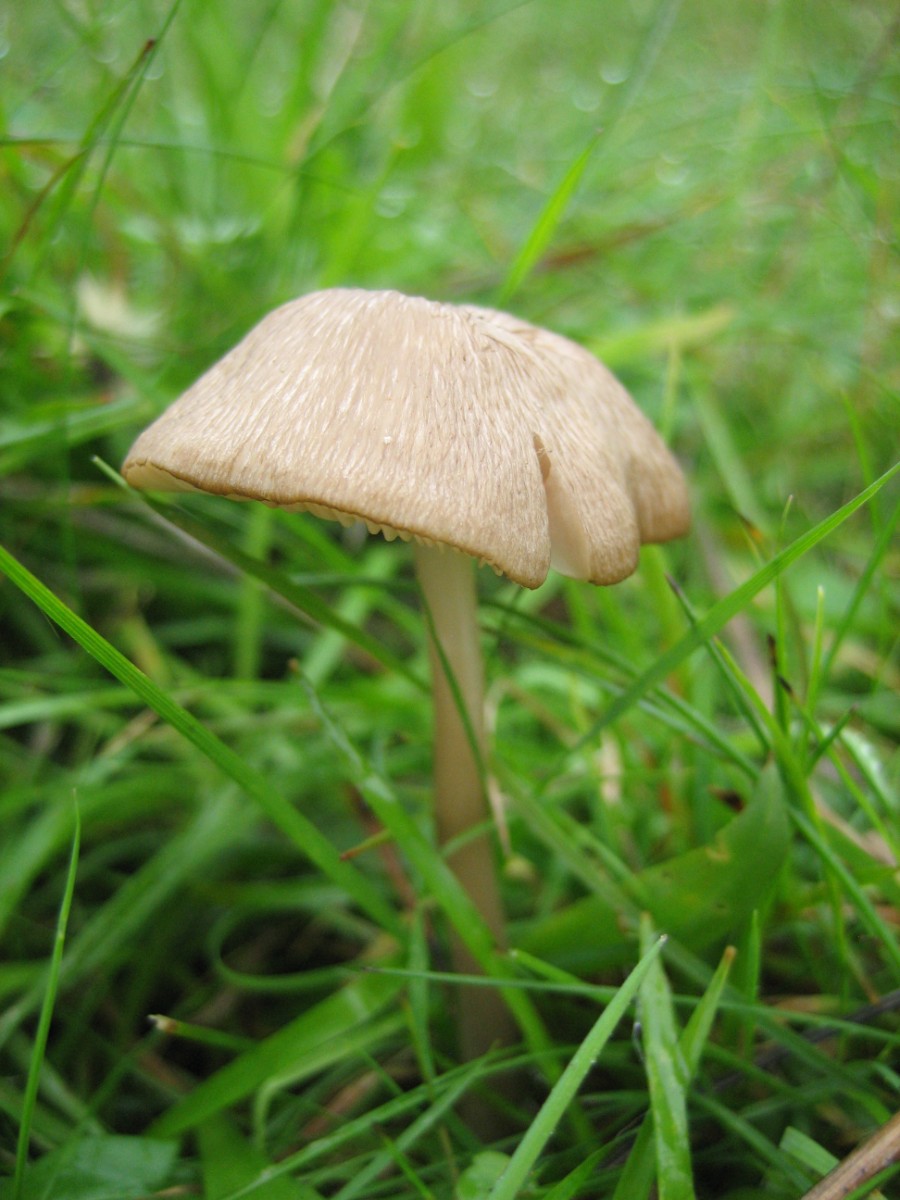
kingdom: Fungi
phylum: Basidiomycota
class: Agaricomycetes
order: Agaricales
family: Entolomataceae
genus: Entoloma
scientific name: Entoloma exile
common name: rødplettet rødblad
